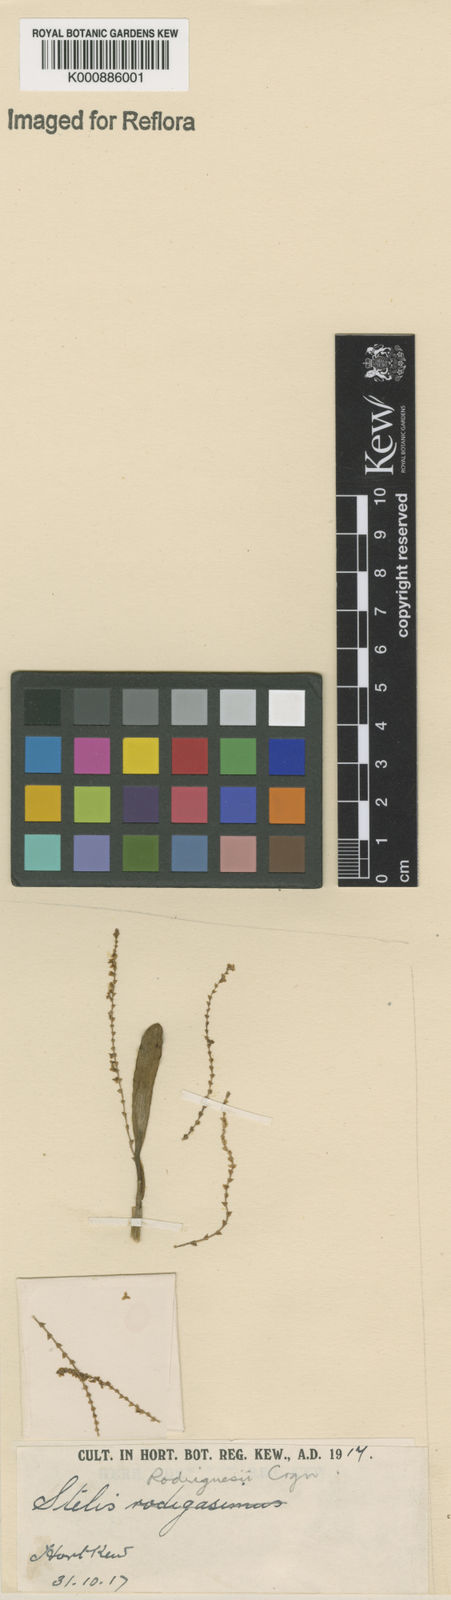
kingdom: Plantae
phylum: Tracheophyta
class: Liliopsida
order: Asparagales
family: Orchidaceae
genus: Stelis
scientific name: Stelis aprica
